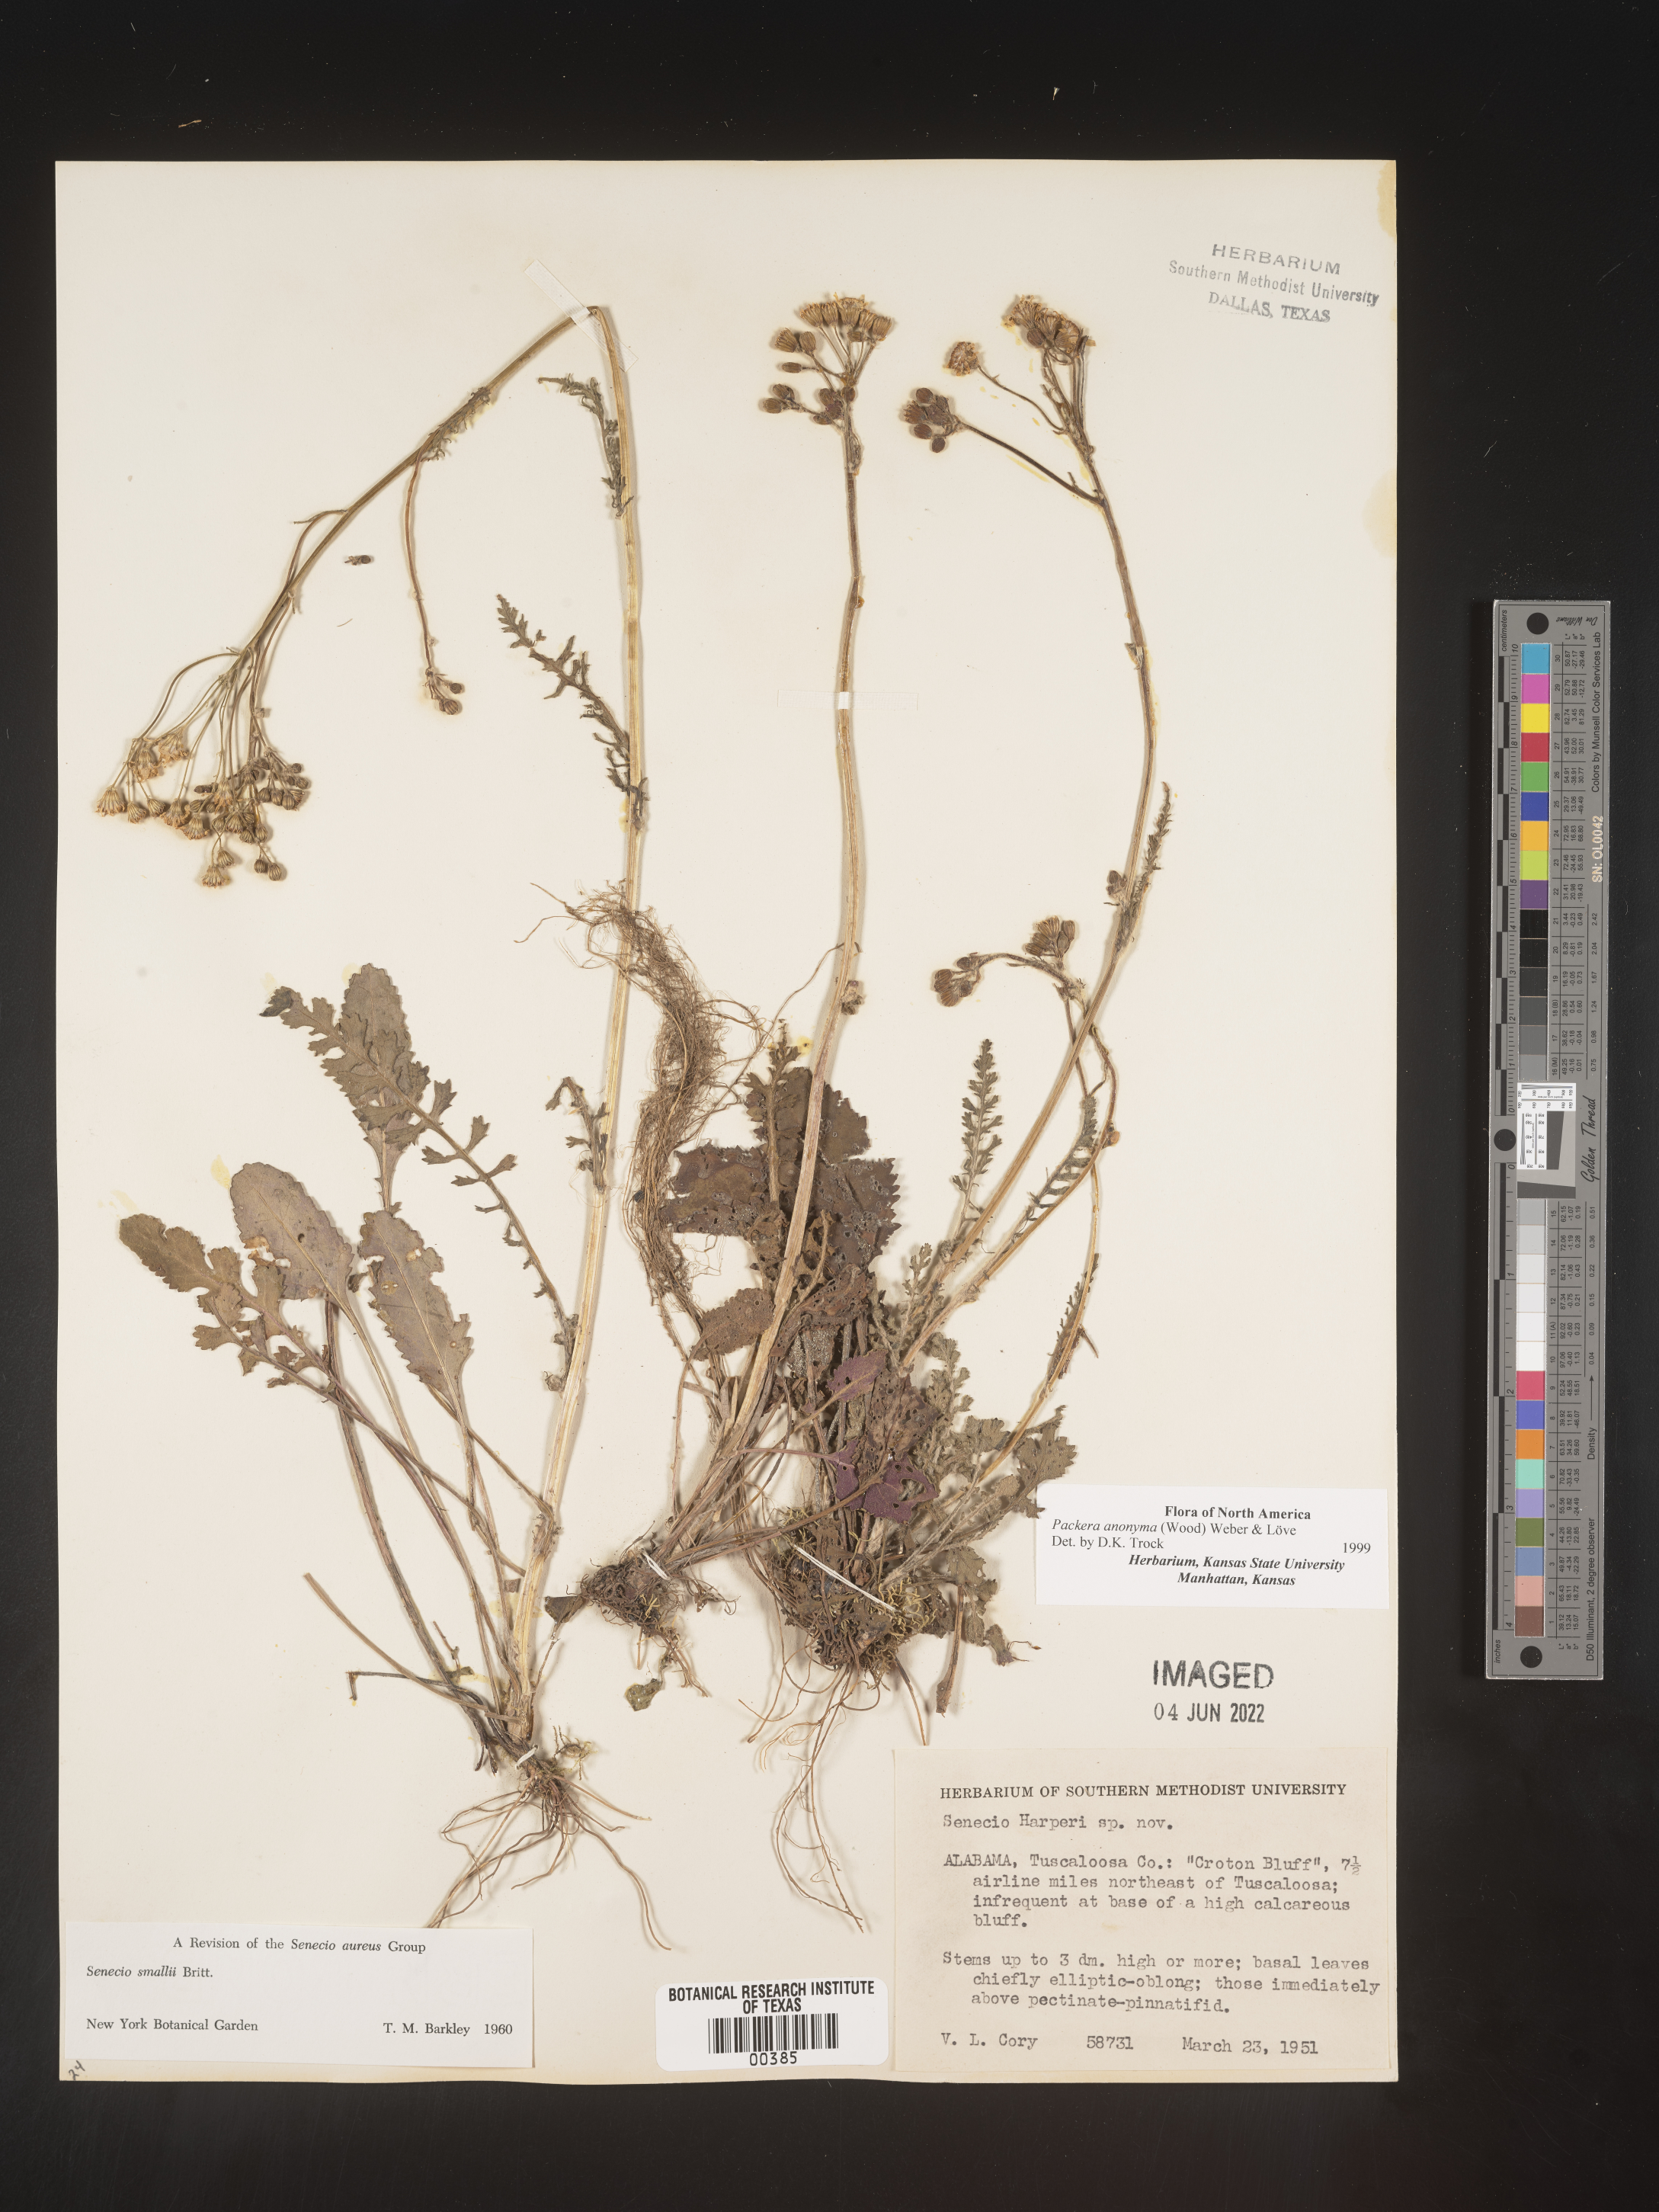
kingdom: Plantae
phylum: Tracheophyta
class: Magnoliopsida
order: Asterales
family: Asteraceae
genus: Packera
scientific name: Packera anonyma
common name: Small ragwort
